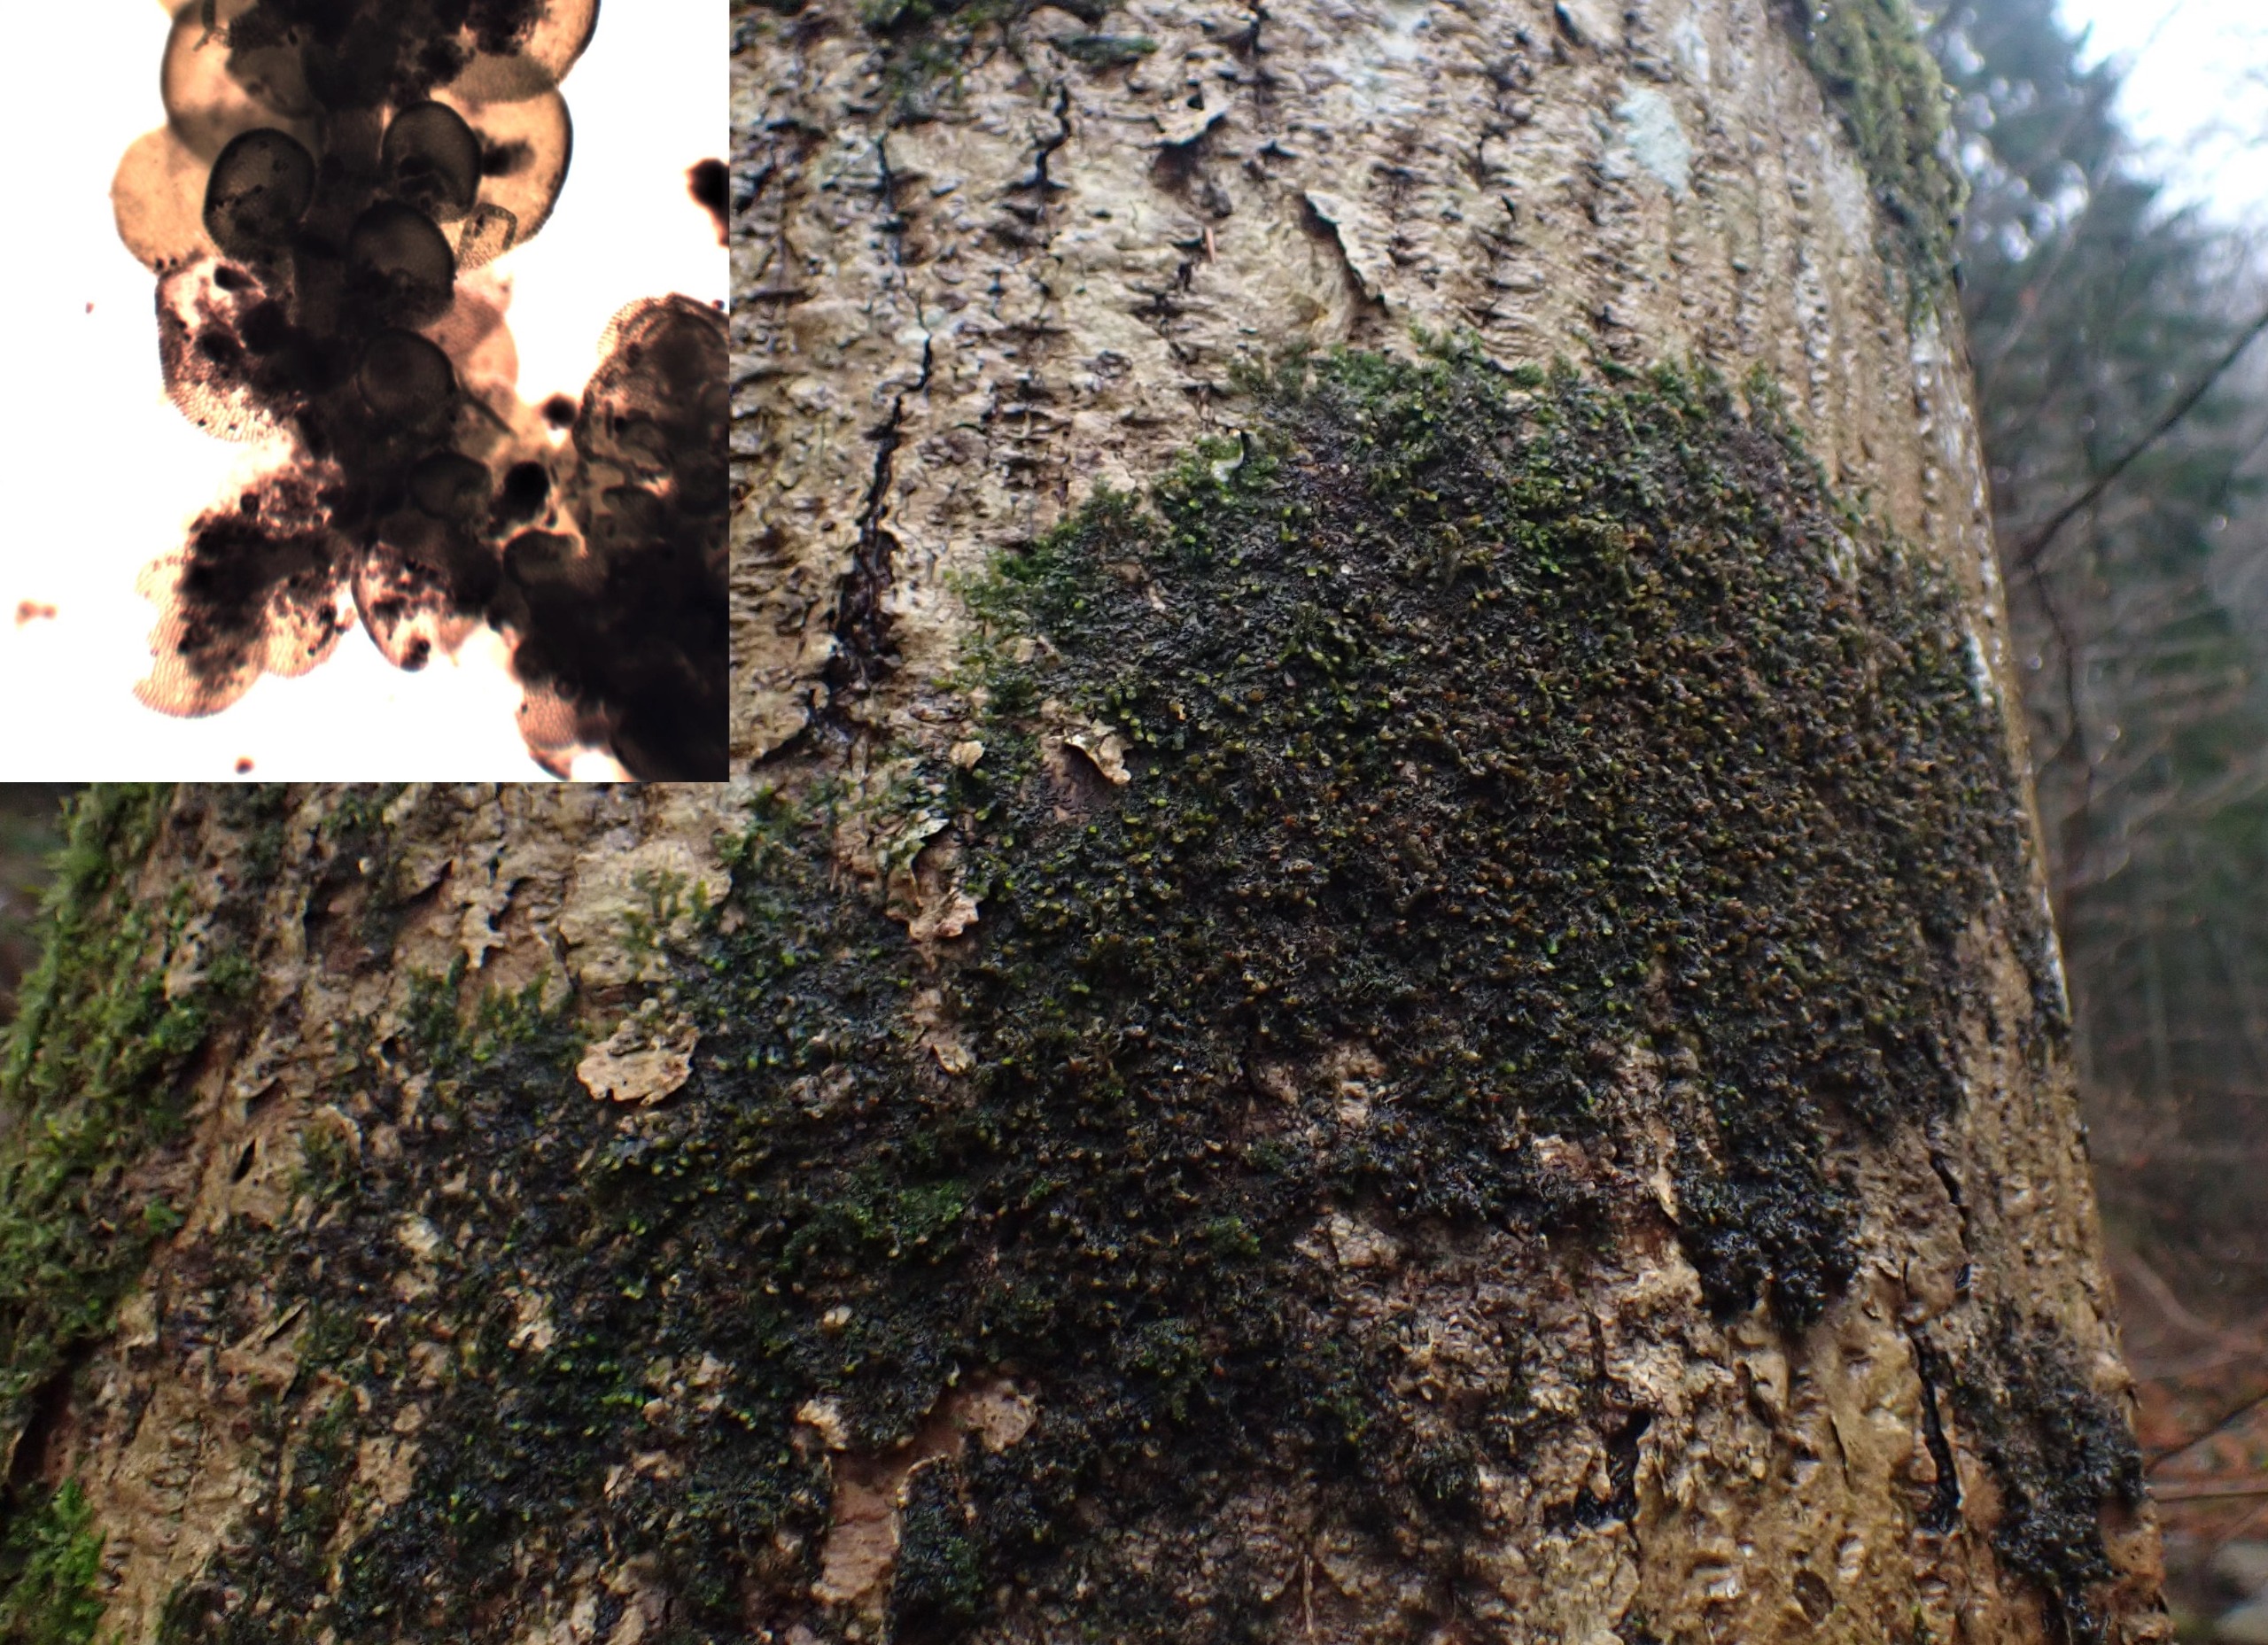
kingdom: Plantae
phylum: Marchantiophyta
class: Jungermanniopsida
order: Porellales
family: Frullaniaceae
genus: Frullania
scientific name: Frullania dilatata
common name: Mat bronzemos
